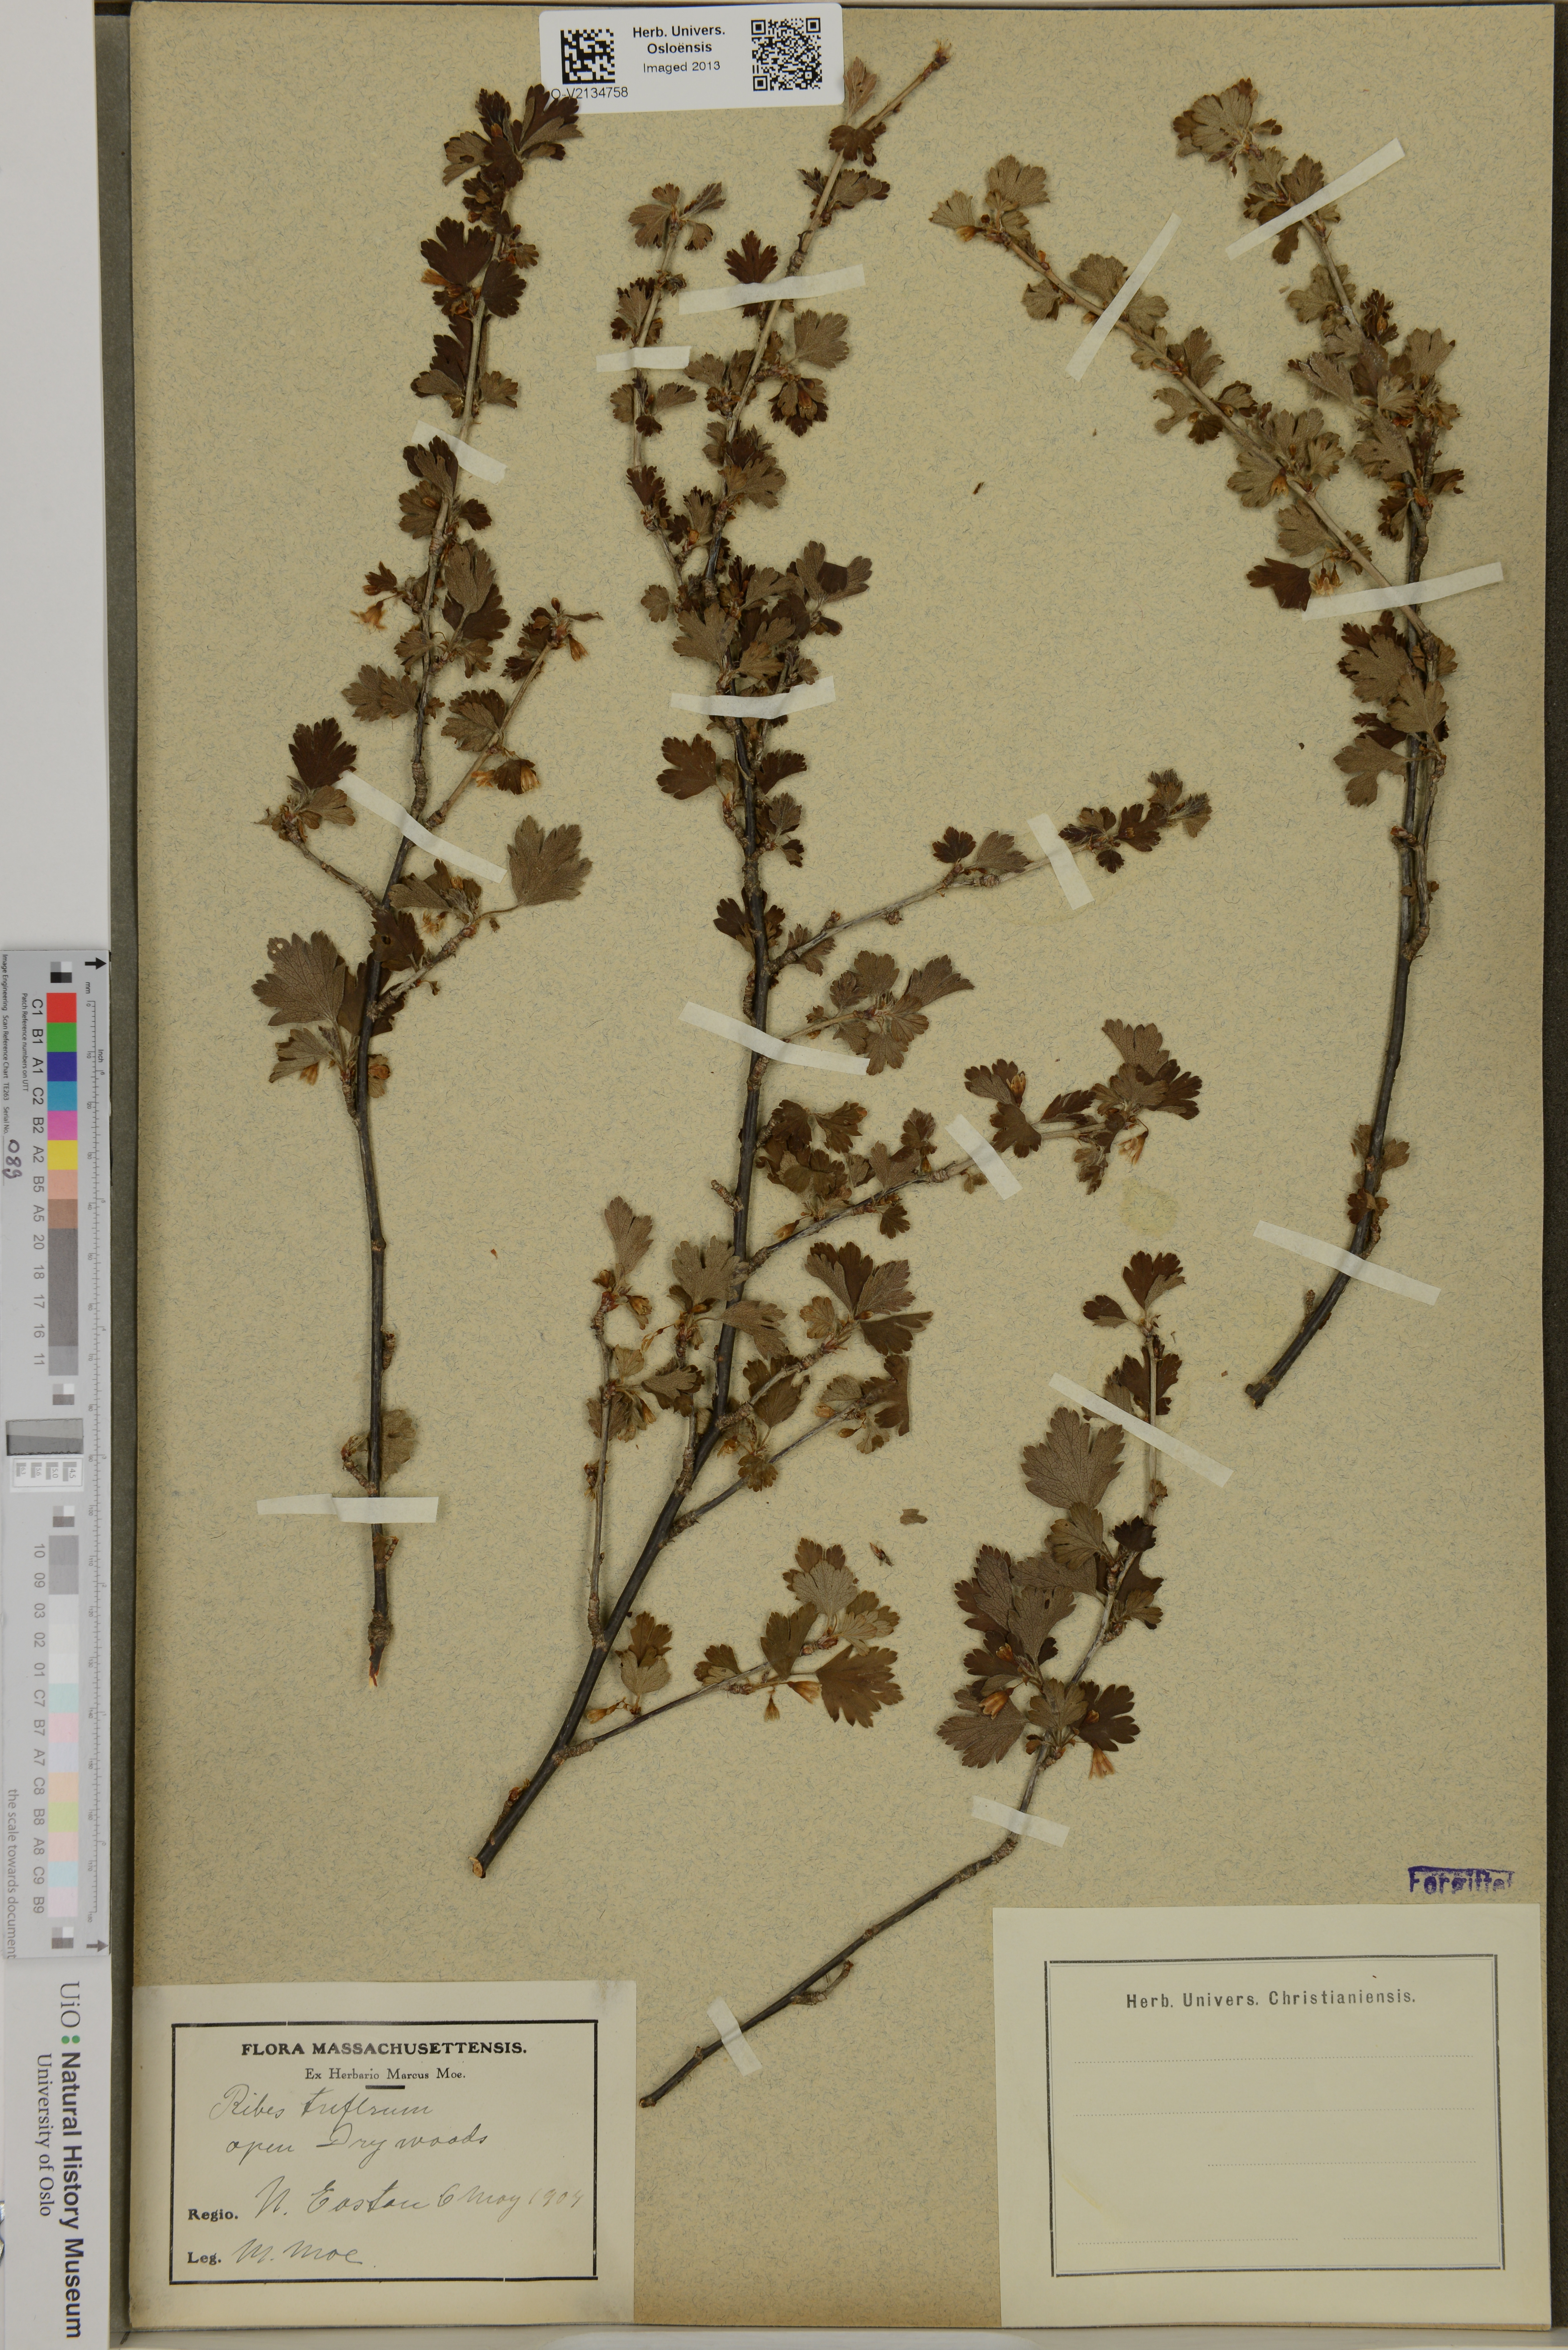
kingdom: Plantae
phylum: Tracheophyta
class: Magnoliopsida
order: Saxifragales
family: Grossulariaceae
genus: Ribes
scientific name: Ribes
